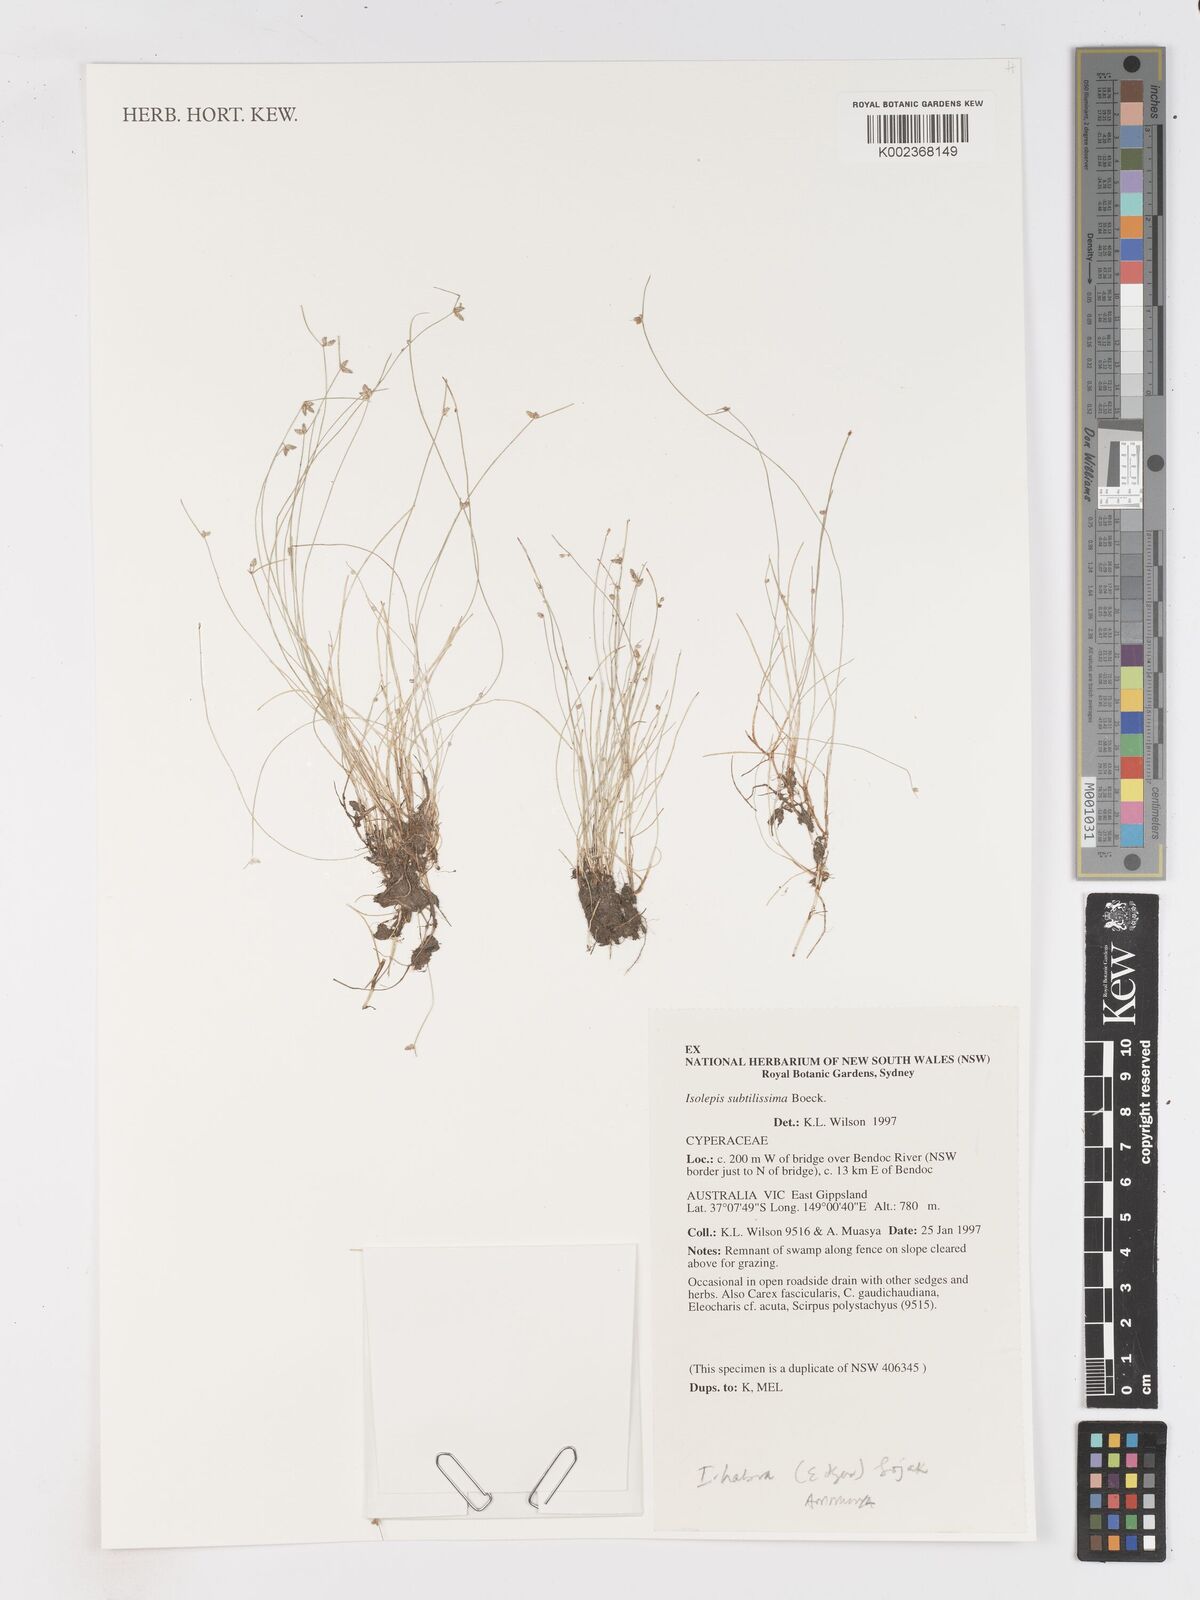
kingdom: Plantae
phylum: Tracheophyta
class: Liliopsida
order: Poales
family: Cyperaceae
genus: Isolepis
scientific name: Isolepis subtilissima
